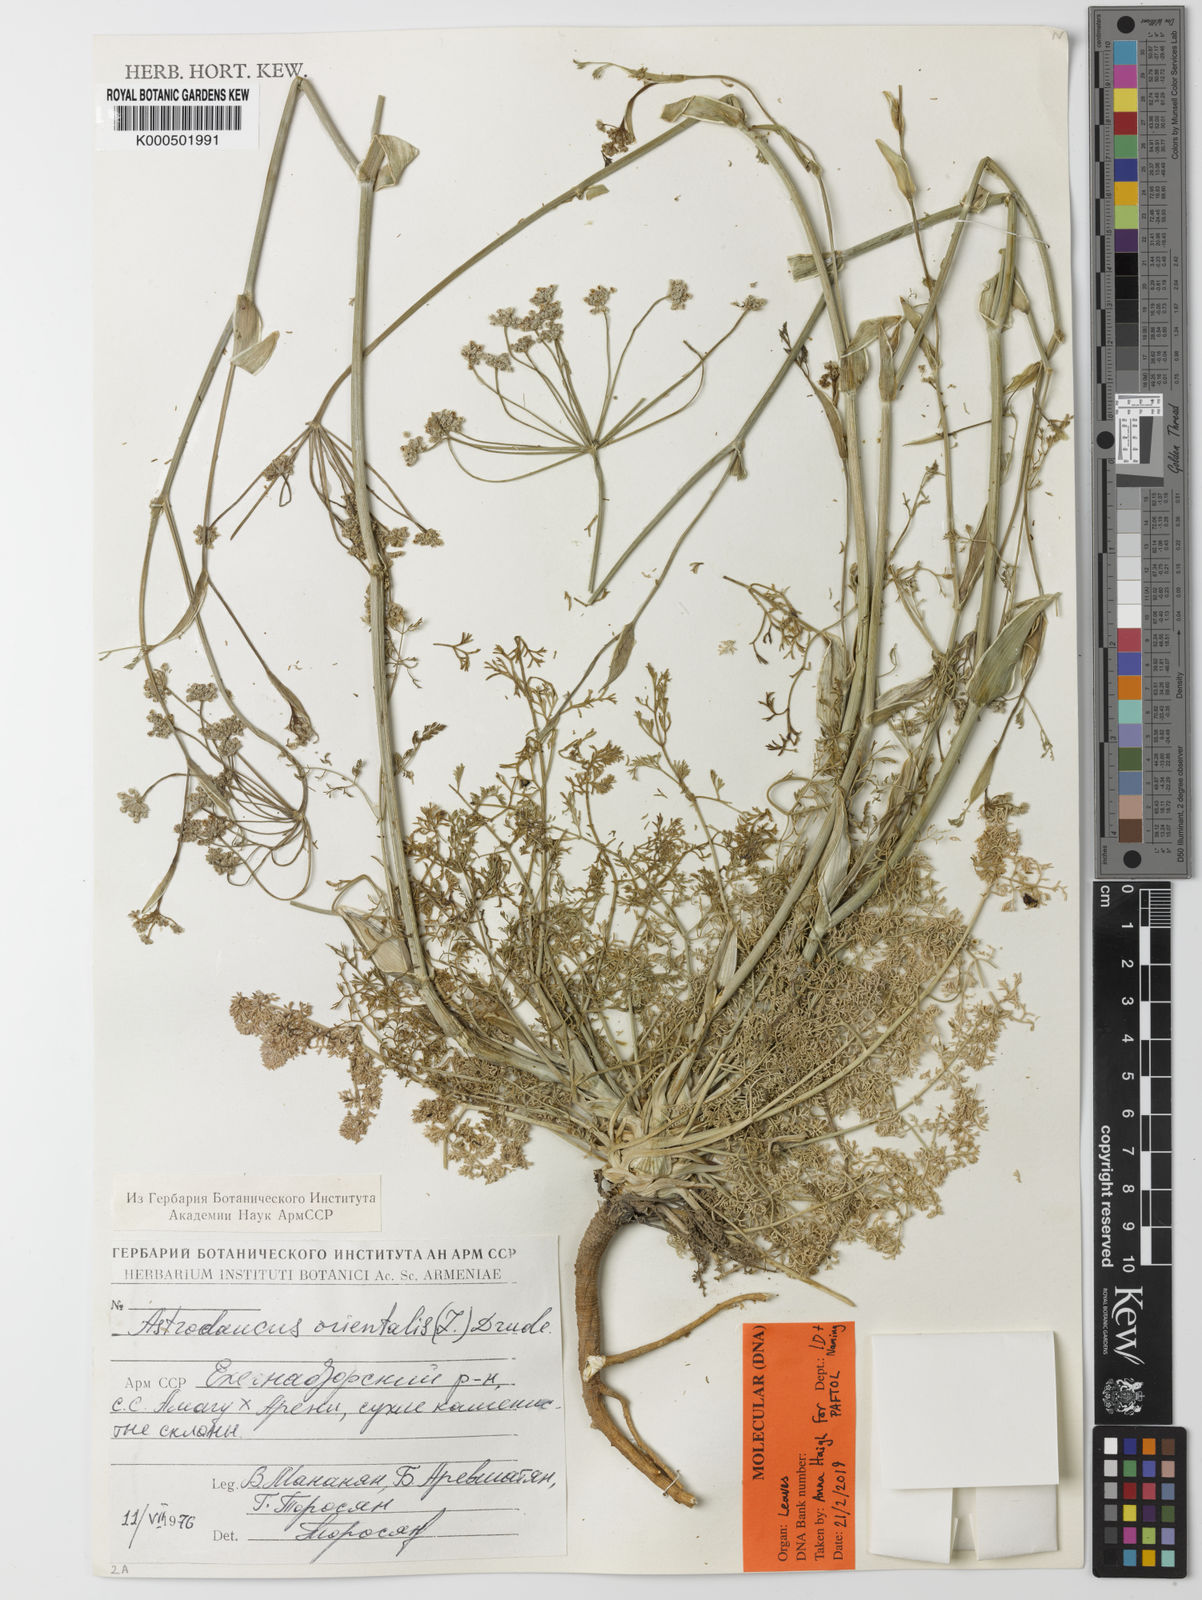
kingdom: Plantae
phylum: Tracheophyta
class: Magnoliopsida
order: Apiales
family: Apiaceae
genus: Astrodaucus
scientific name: Astrodaucus orientalis
